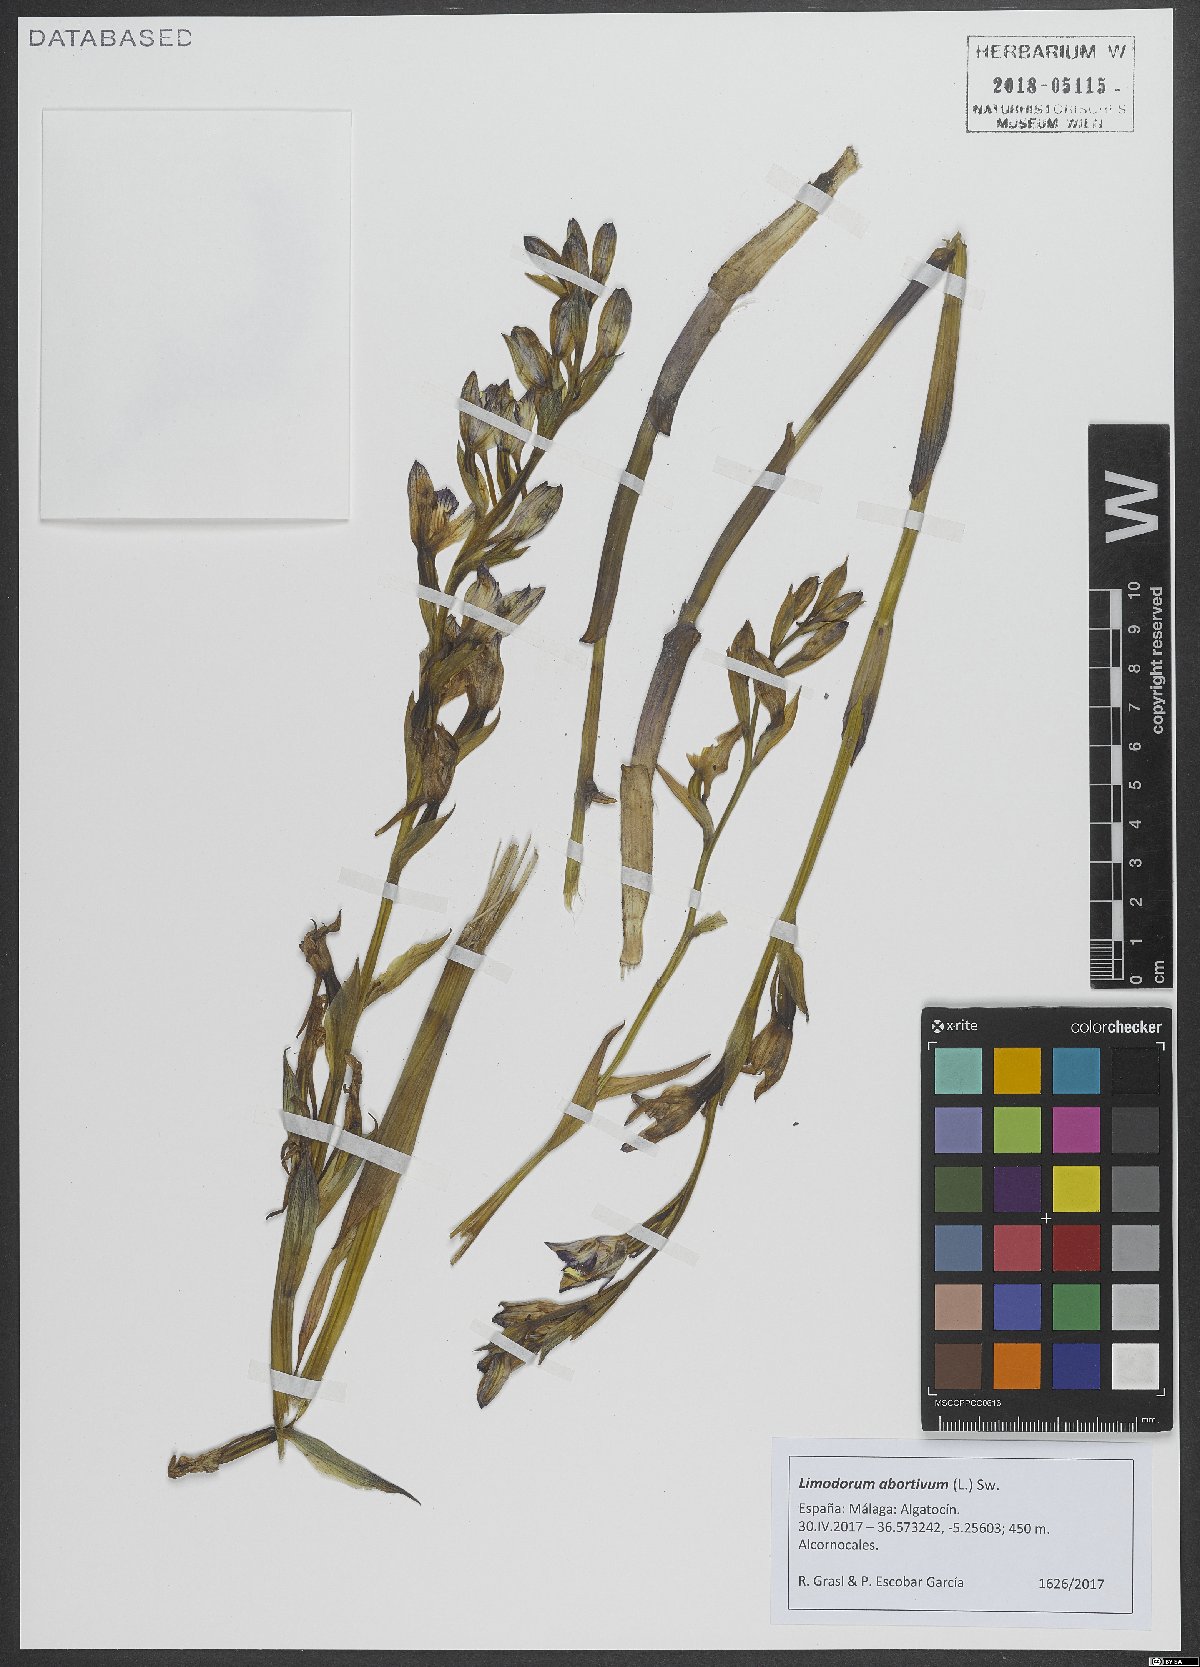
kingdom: Plantae
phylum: Tracheophyta
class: Liliopsida
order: Asparagales
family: Orchidaceae
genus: Limodorum
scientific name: Limodorum abortivum
